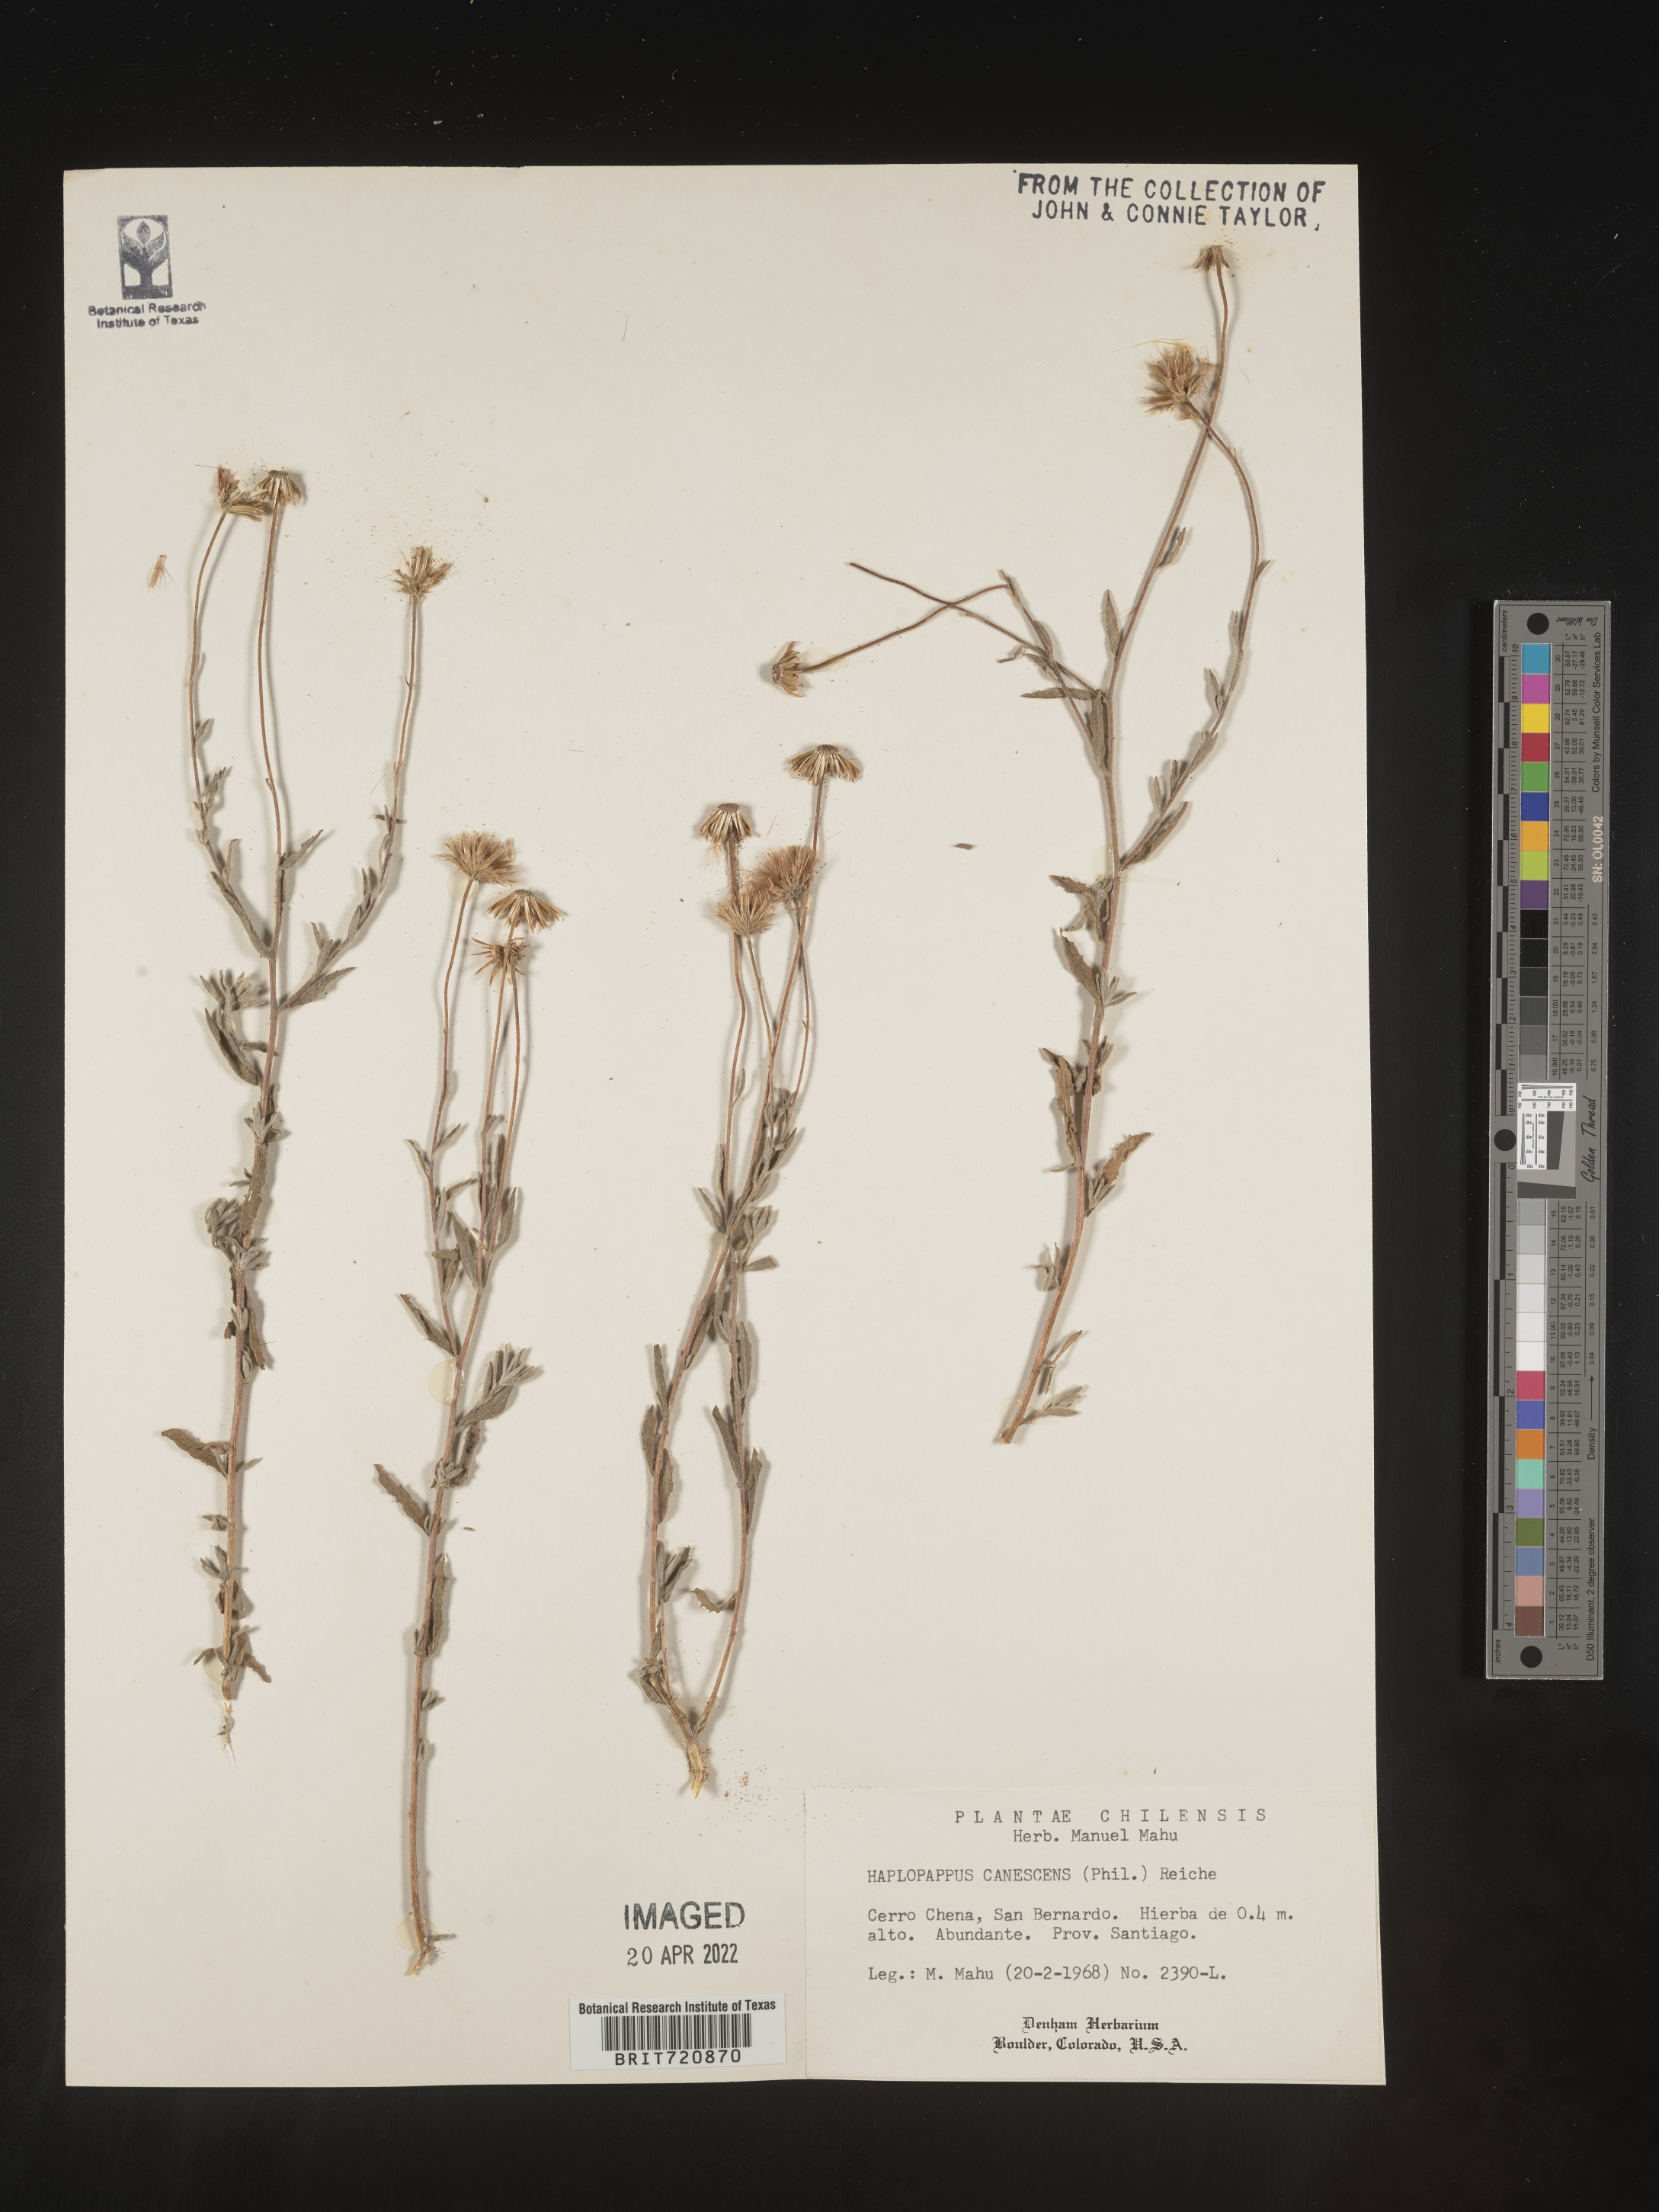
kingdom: Plantae
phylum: Tracheophyta
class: Magnoliopsida
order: Asterales
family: Asteraceae
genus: Haplopappus
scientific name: Haplopappus
